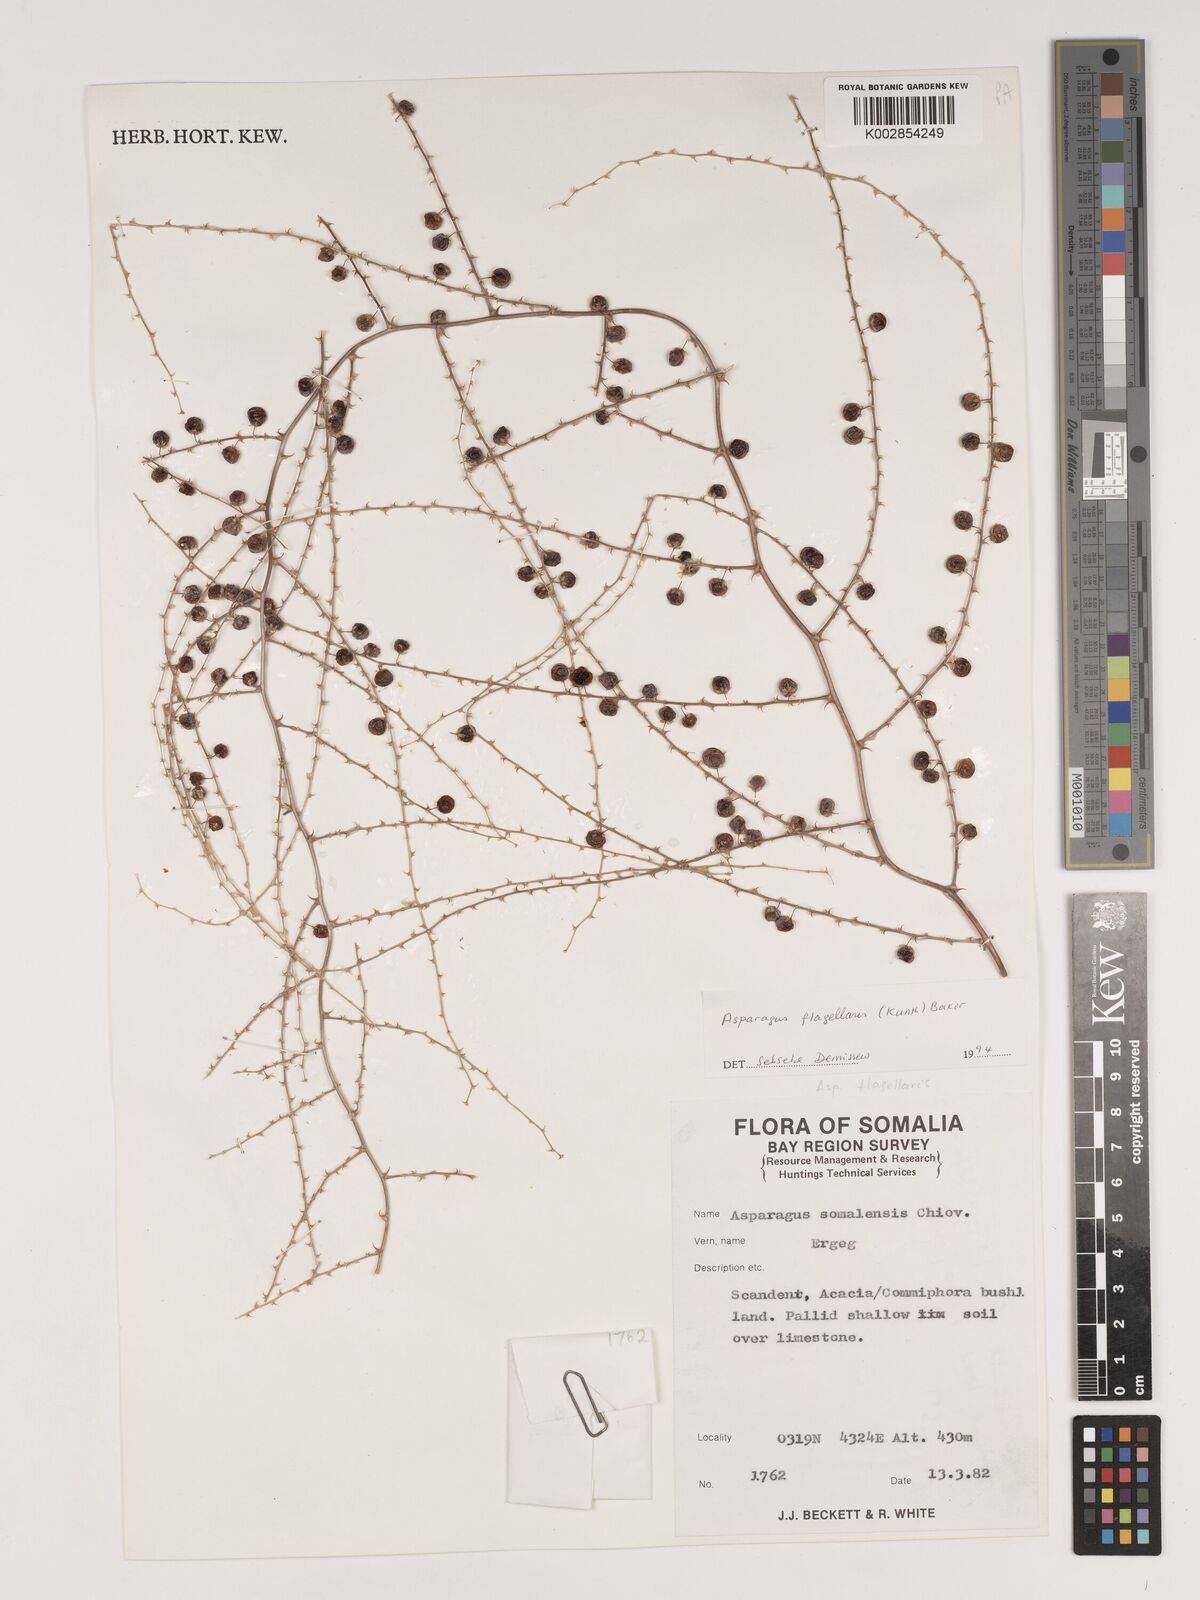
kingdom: Plantae
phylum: Tracheophyta
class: Liliopsida
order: Asparagales
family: Asparagaceae
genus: Asparagus
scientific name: Asparagus flagellaris
